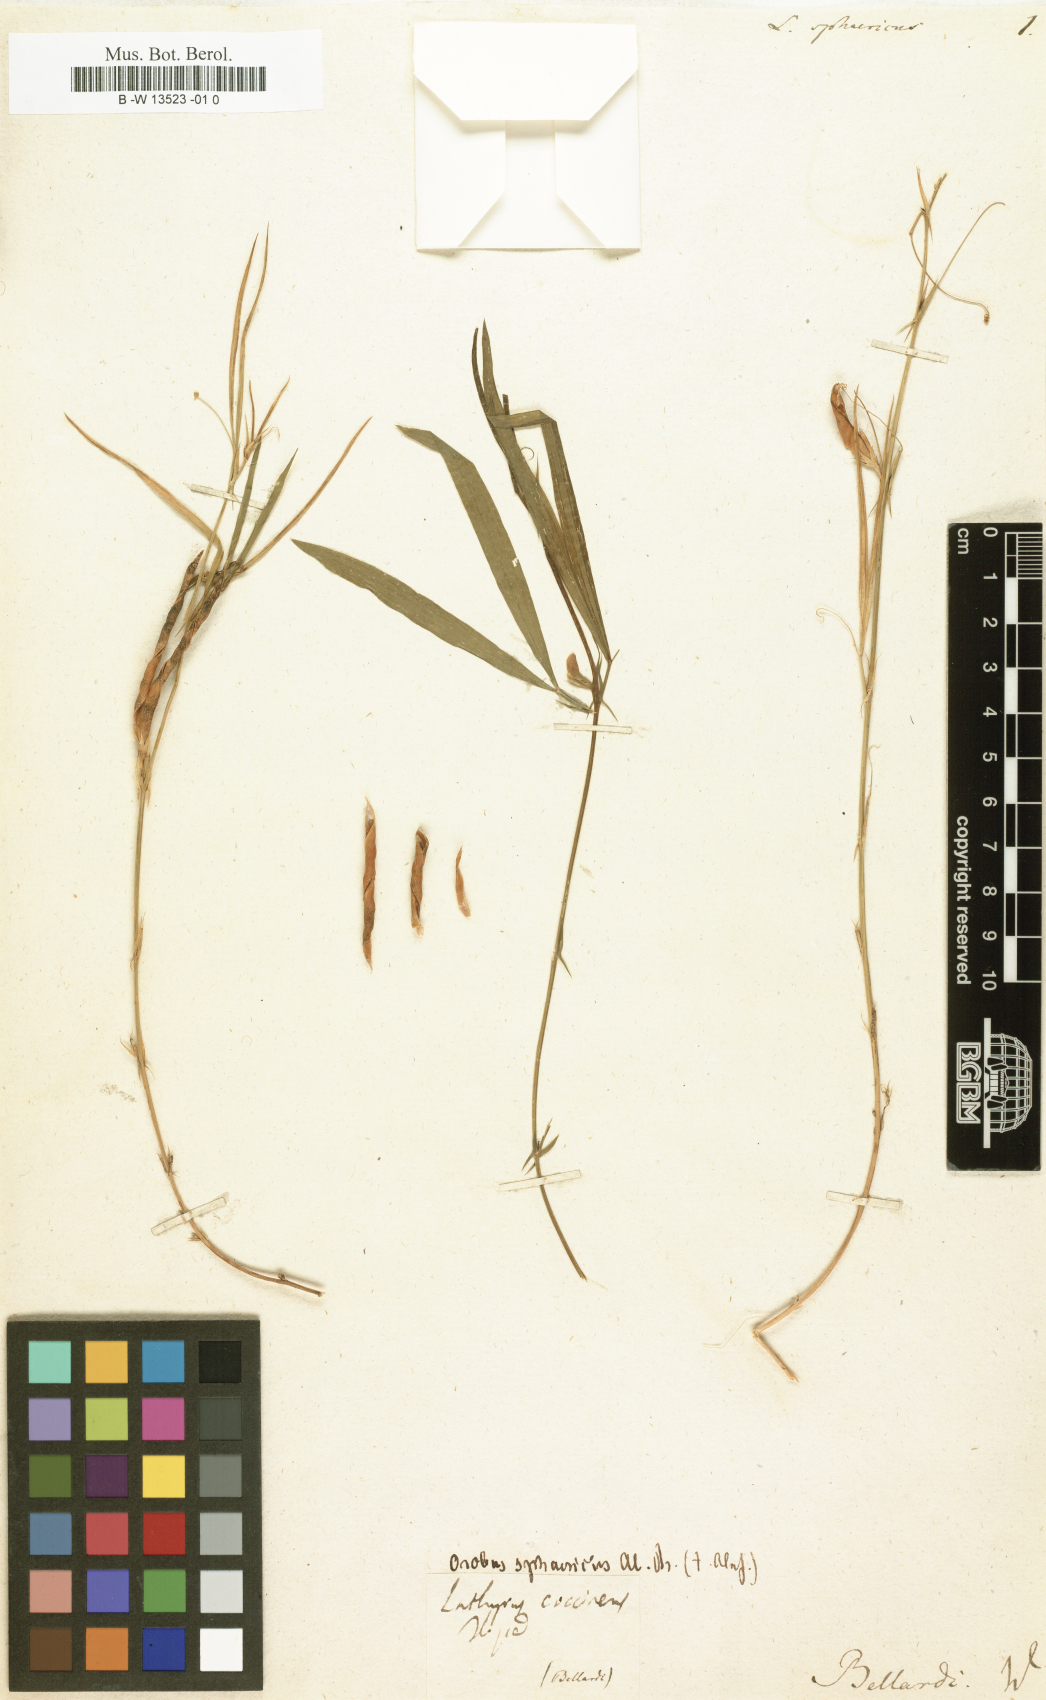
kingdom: Plantae
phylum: Tracheophyta
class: Magnoliopsida
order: Fabales
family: Fabaceae
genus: Lathyrus
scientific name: Lathyrus sphaericus
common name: Grass pea
